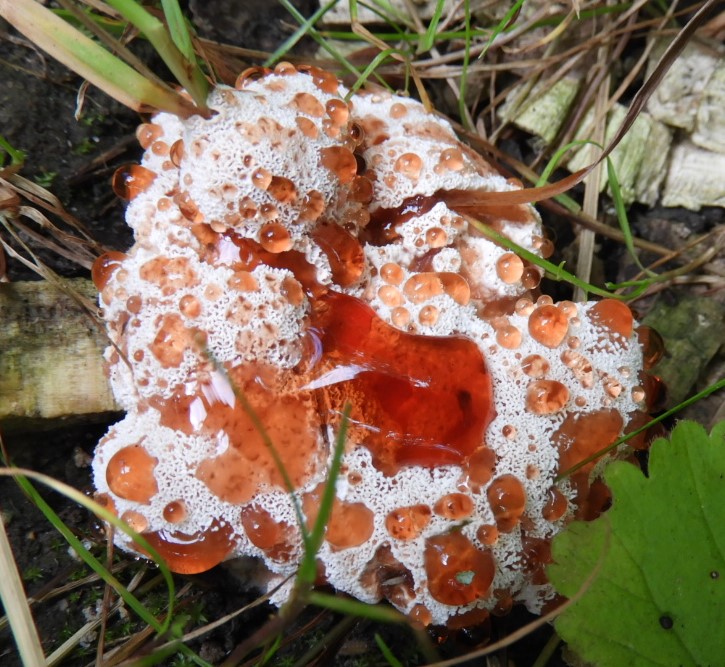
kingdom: Fungi
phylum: Basidiomycota
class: Agaricomycetes
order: Polyporales
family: Podoscyphaceae
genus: Abortiporus
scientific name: Abortiporus biennis
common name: rødmende pjalteporesvamp
